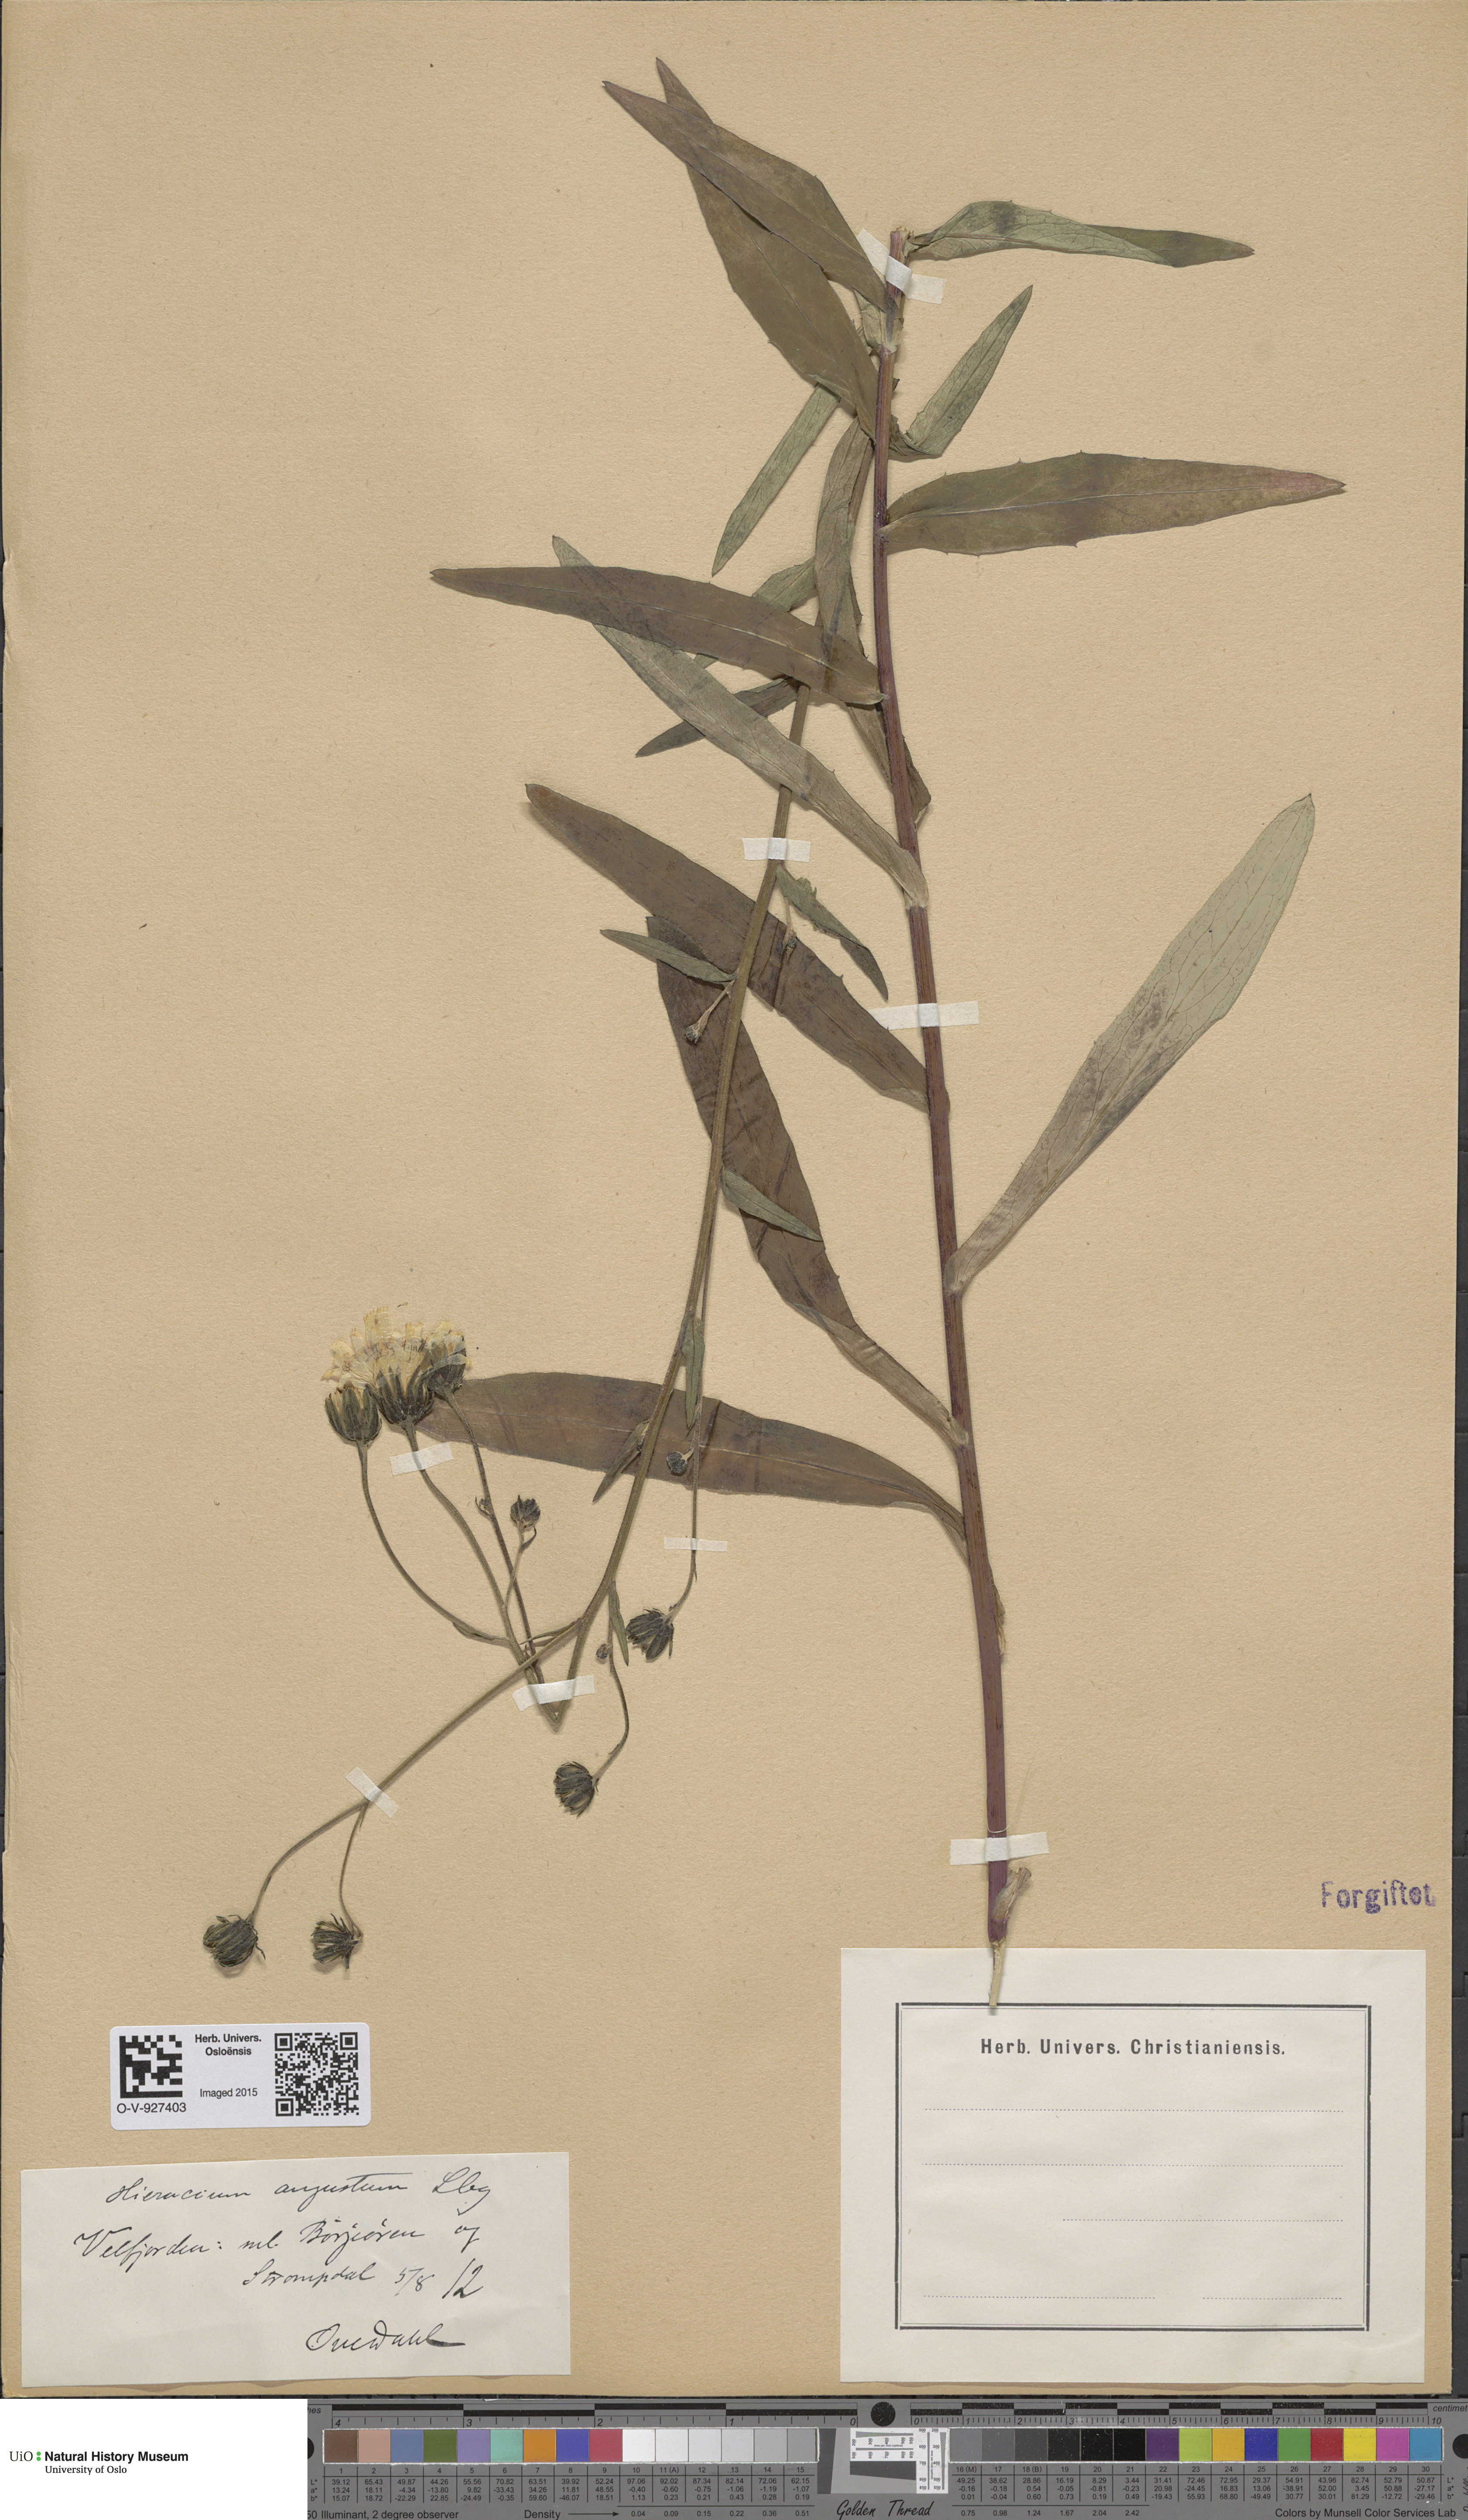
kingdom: Plantae
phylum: Tracheophyta
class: Magnoliopsida
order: Asterales
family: Asteraceae
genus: Hieracium
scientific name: Hieracium angustum
